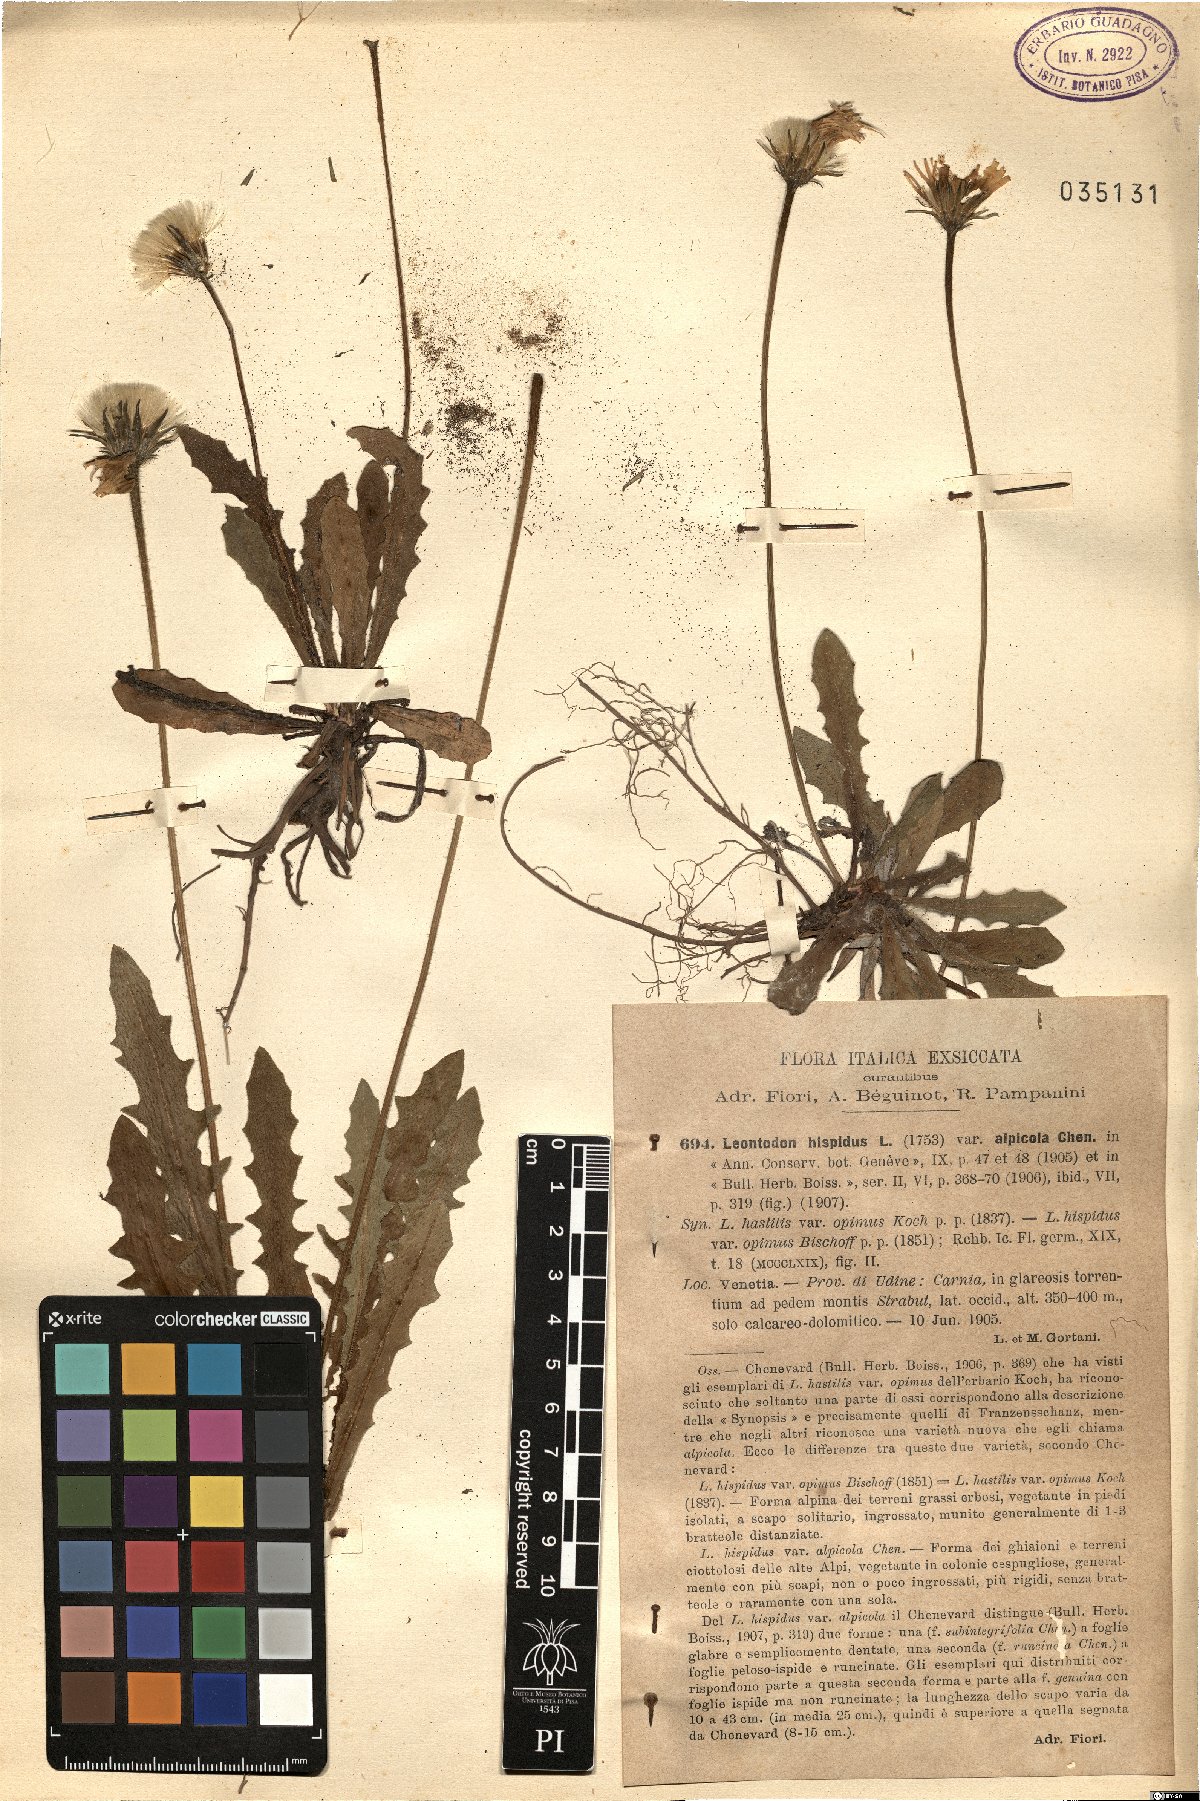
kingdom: Plantae
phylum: Tracheophyta
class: Magnoliopsida
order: Asterales
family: Asteraceae
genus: Leontodon
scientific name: Leontodon hispidus
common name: Rough hawkbit
